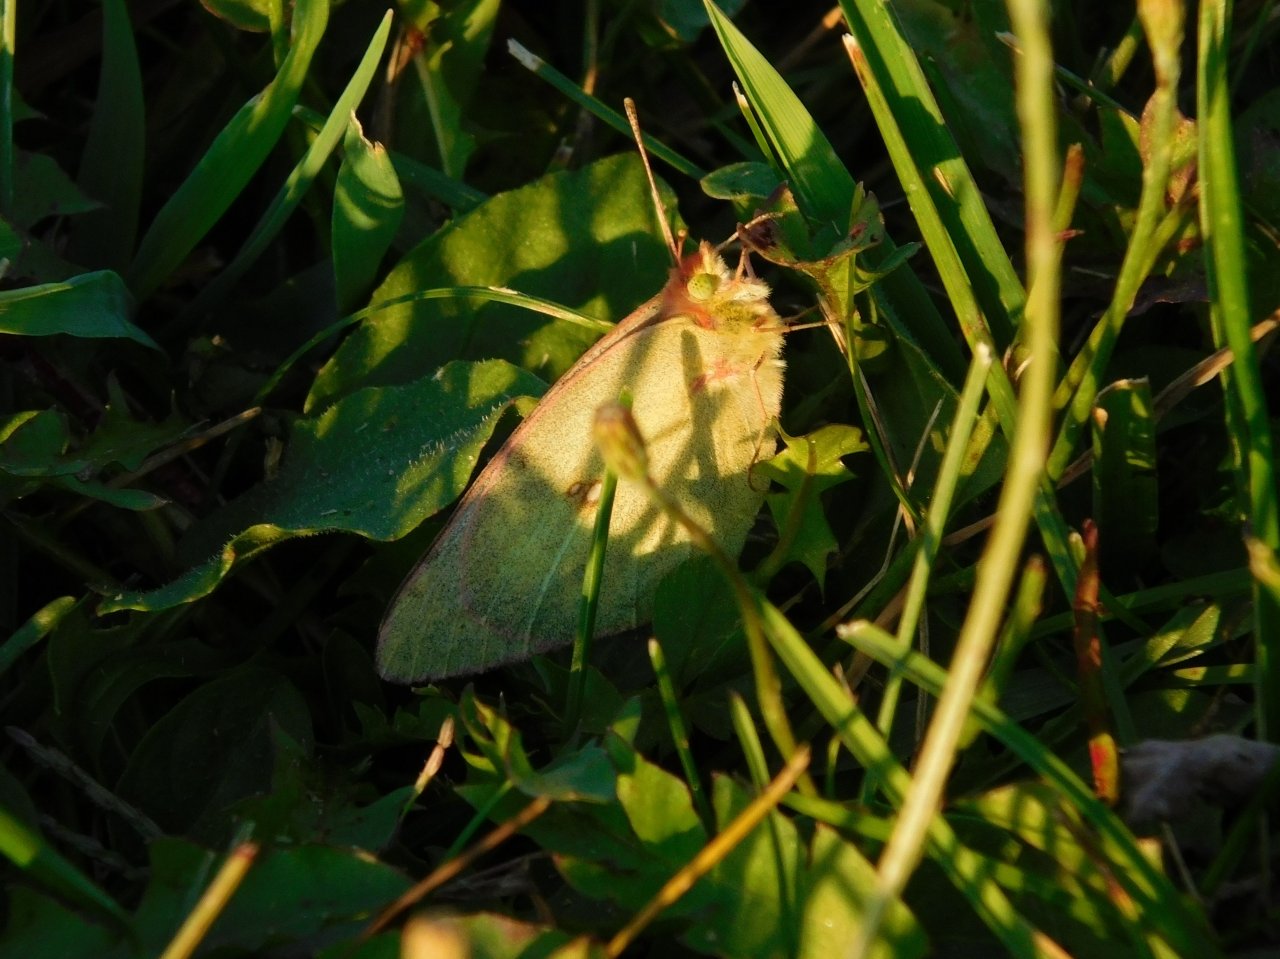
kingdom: Animalia
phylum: Arthropoda
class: Insecta
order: Lepidoptera
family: Pieridae
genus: Colias
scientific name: Colias
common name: Clouded Yellows
